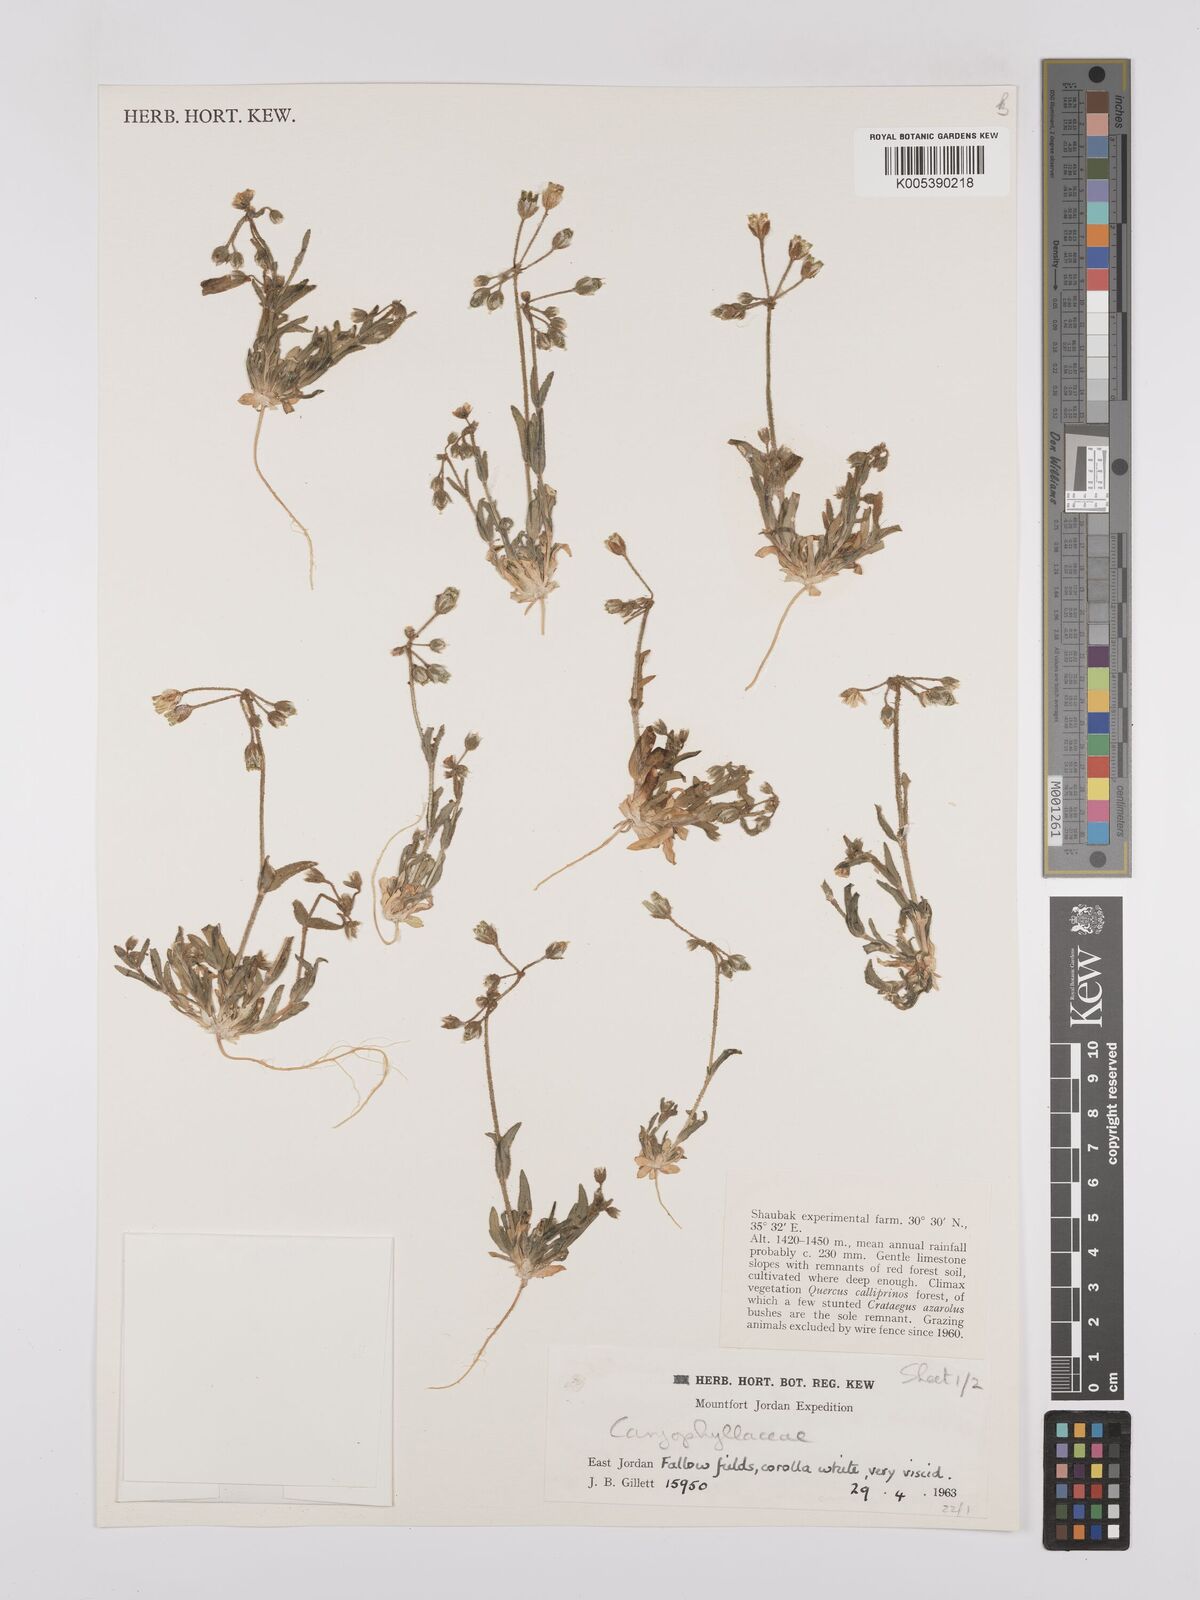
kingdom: Plantae
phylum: Tracheophyta
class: Magnoliopsida
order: Caryophyllales
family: Caryophyllaceae
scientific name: Caryophyllaceae
